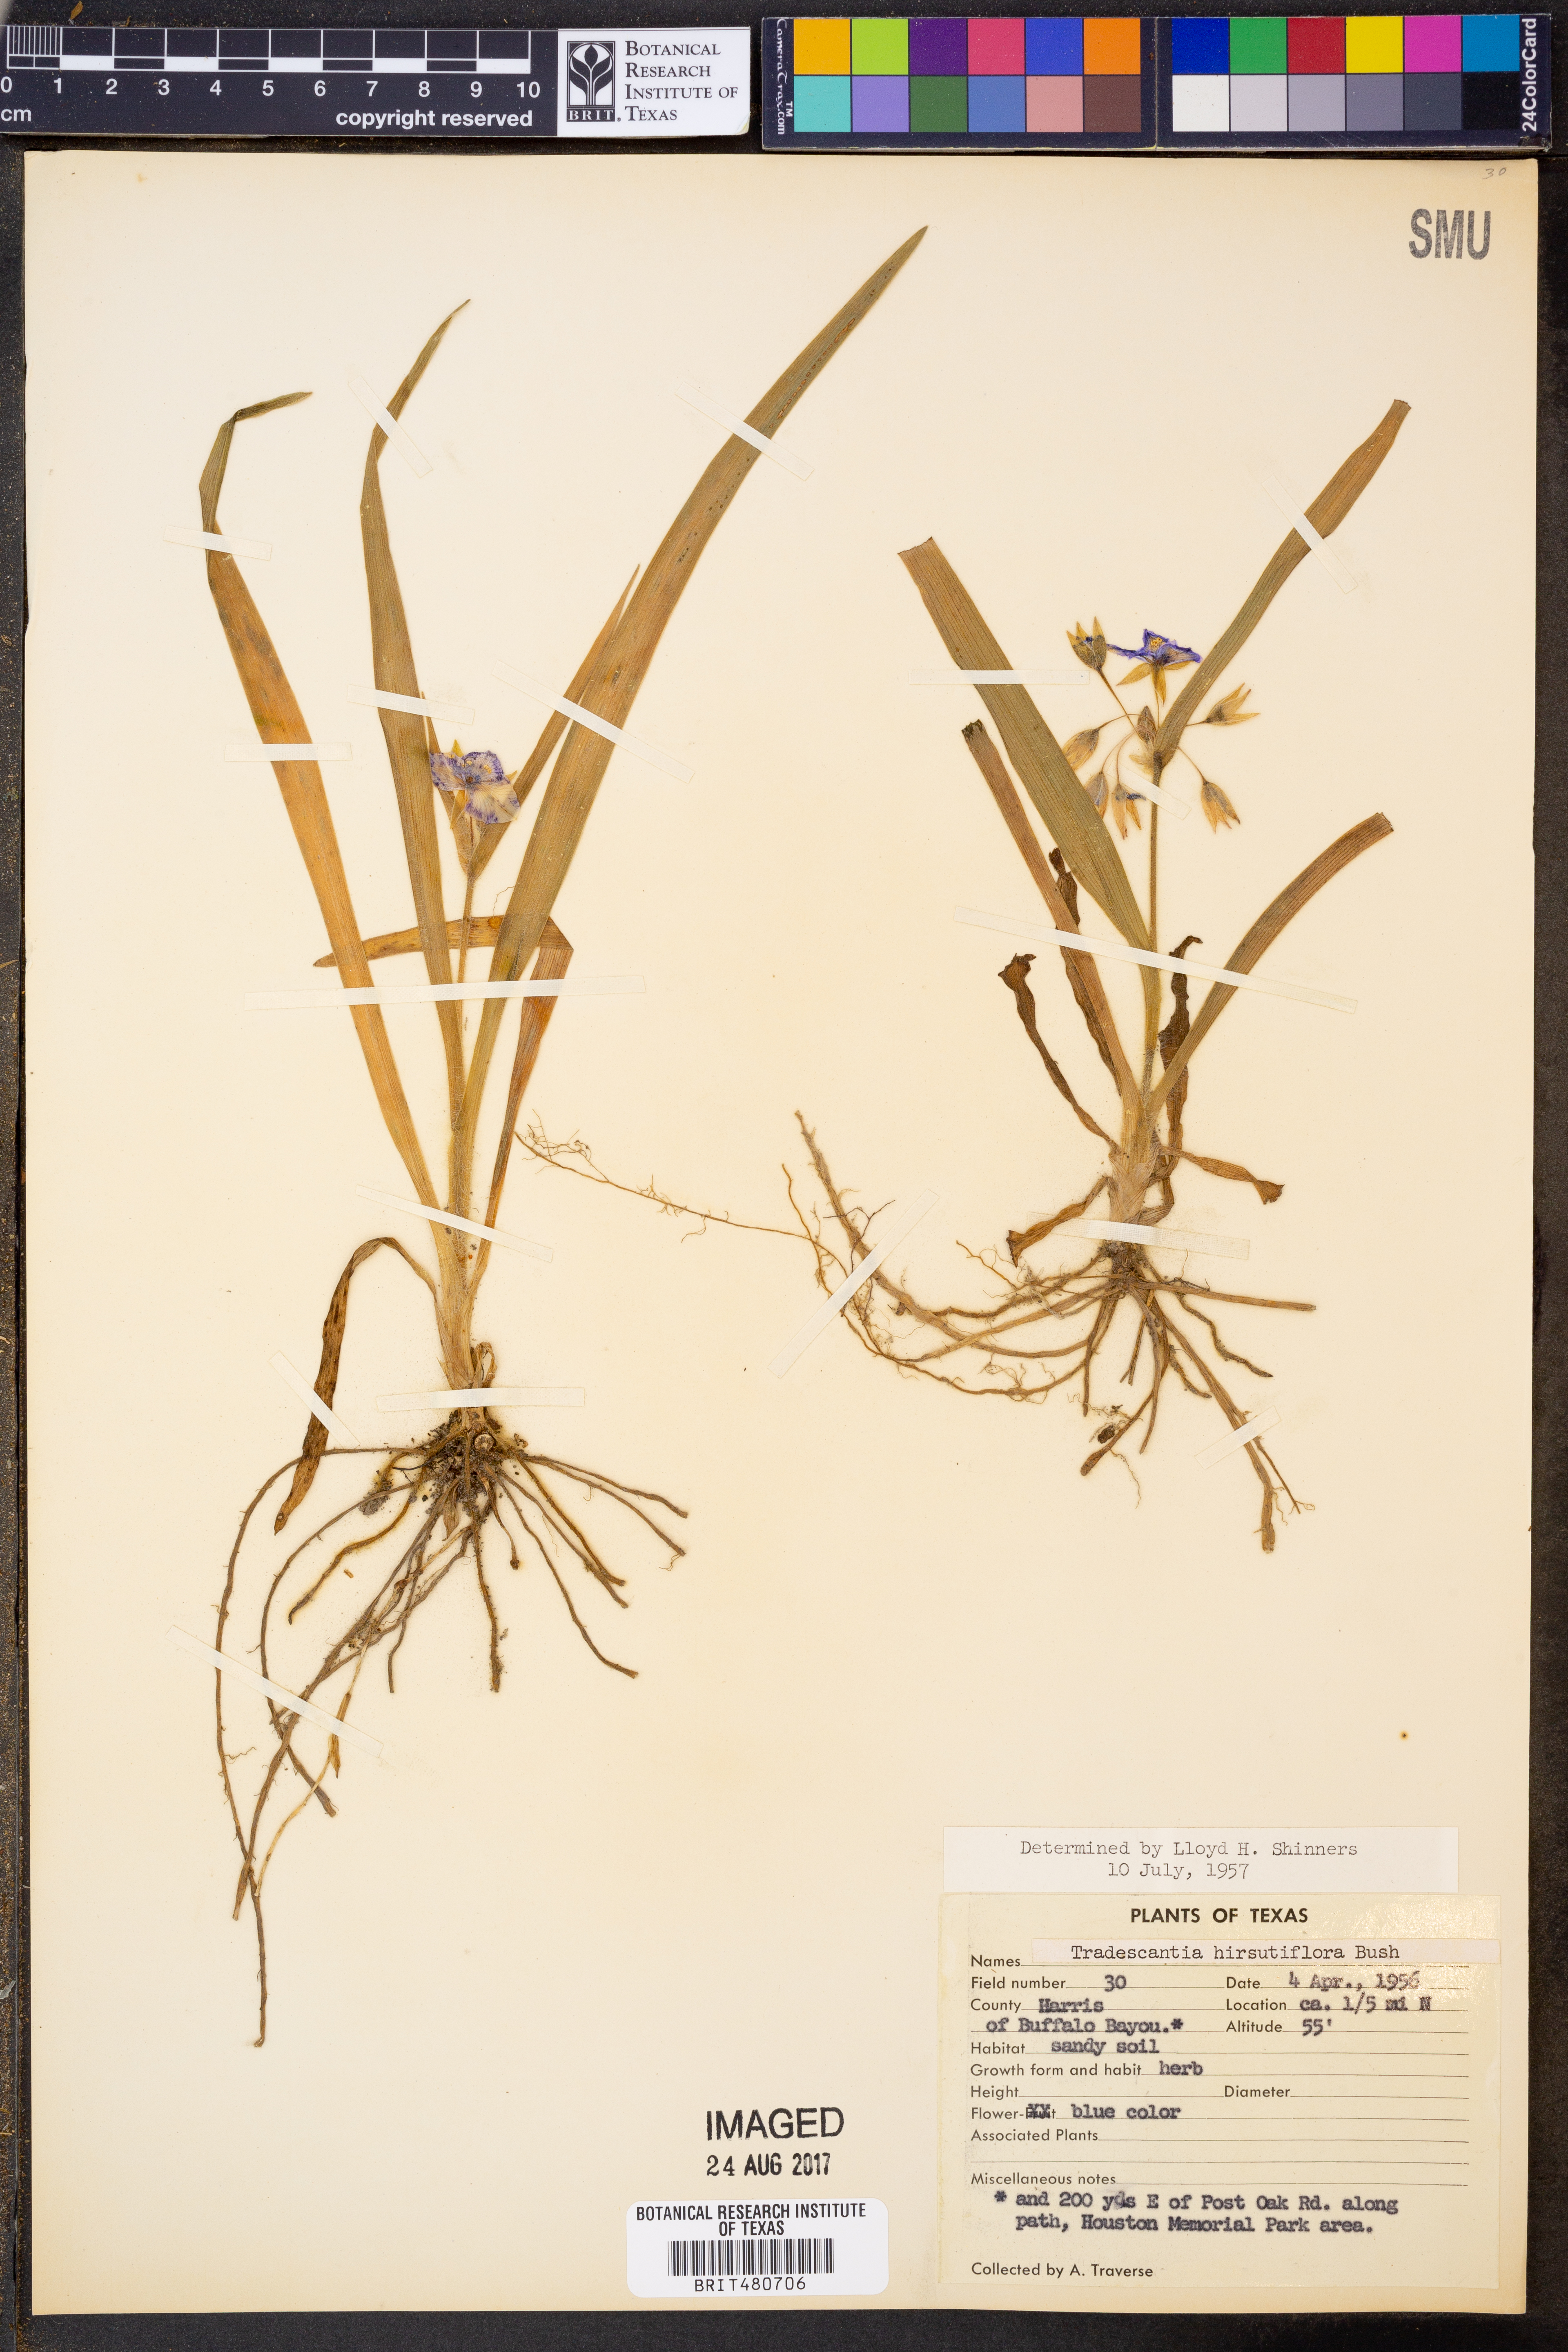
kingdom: Plantae
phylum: Tracheophyta
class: Liliopsida
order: Commelinales
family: Commelinaceae
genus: Tradescantia
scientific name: Tradescantia hirsutiflora
